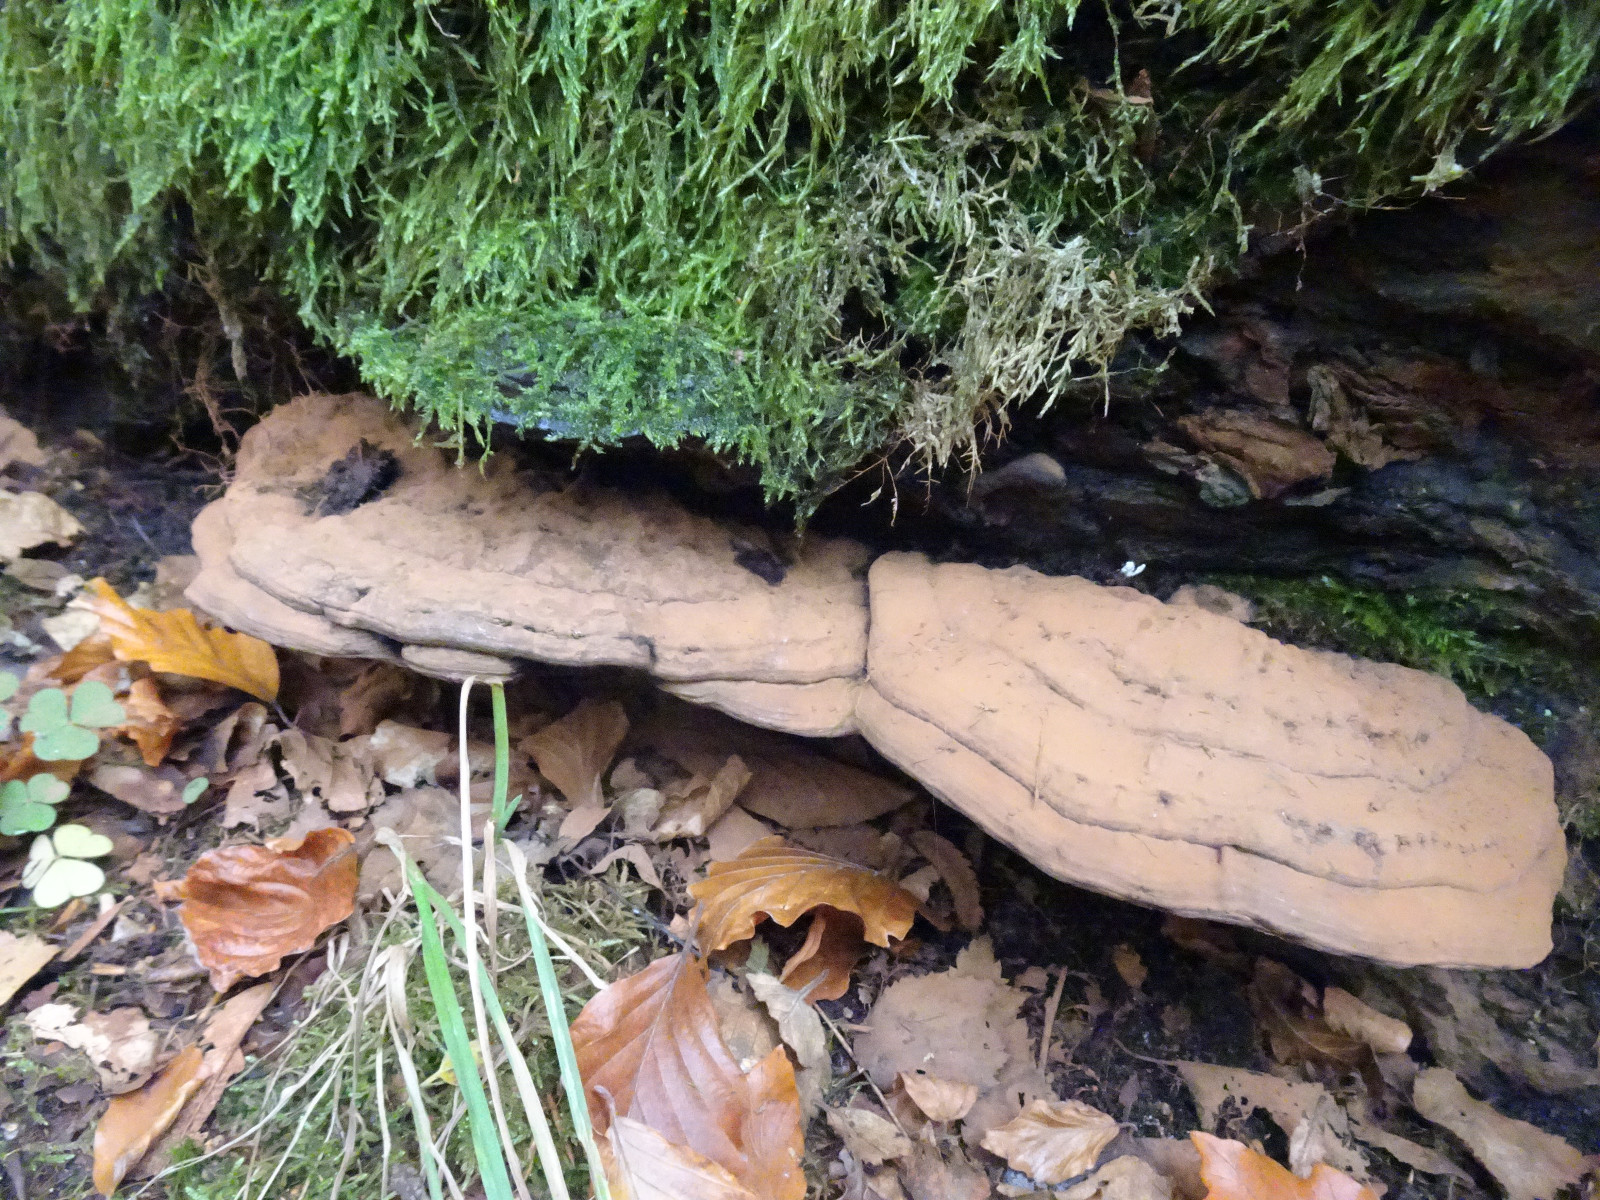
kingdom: Fungi
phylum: Basidiomycota
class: Agaricomycetes
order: Polyporales
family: Polyporaceae
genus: Ganoderma
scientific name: Ganoderma applanatum
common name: flad lakporesvamp
